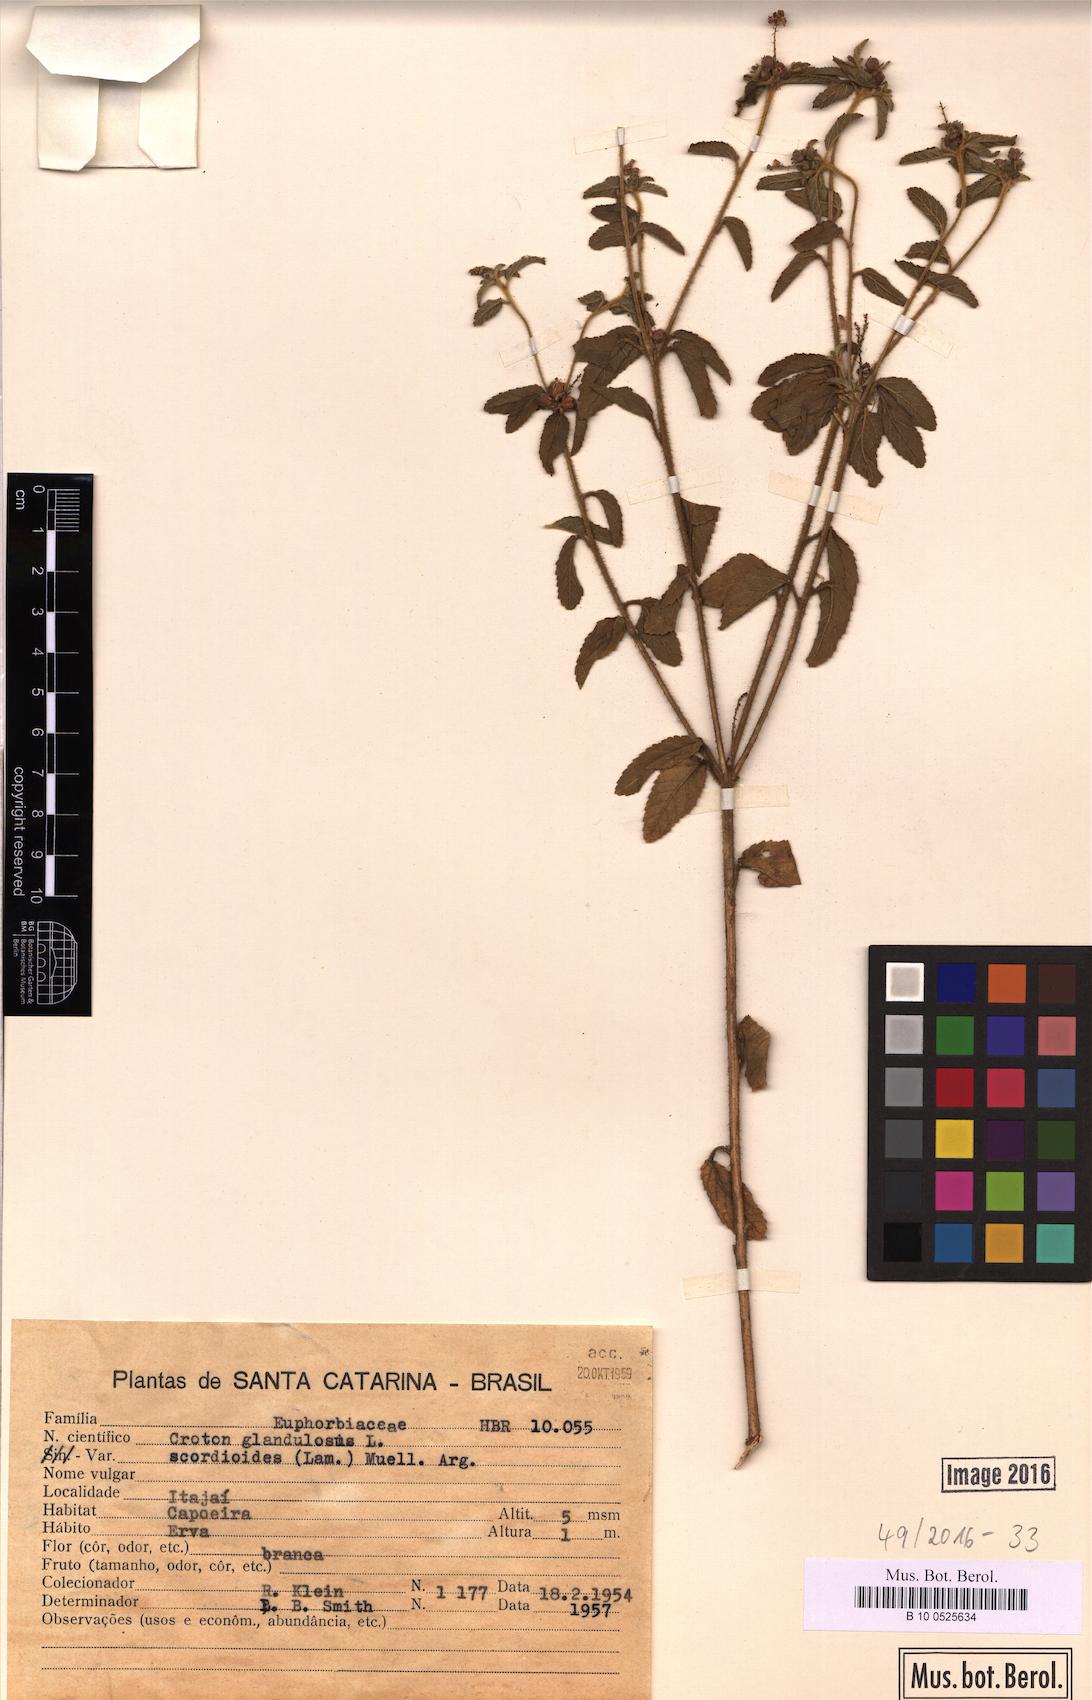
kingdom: Plantae
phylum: Tracheophyta
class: Magnoliopsida
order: Malpighiales
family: Euphorbiaceae
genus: Croton
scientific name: Croton glandulosus
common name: Tropic croton
